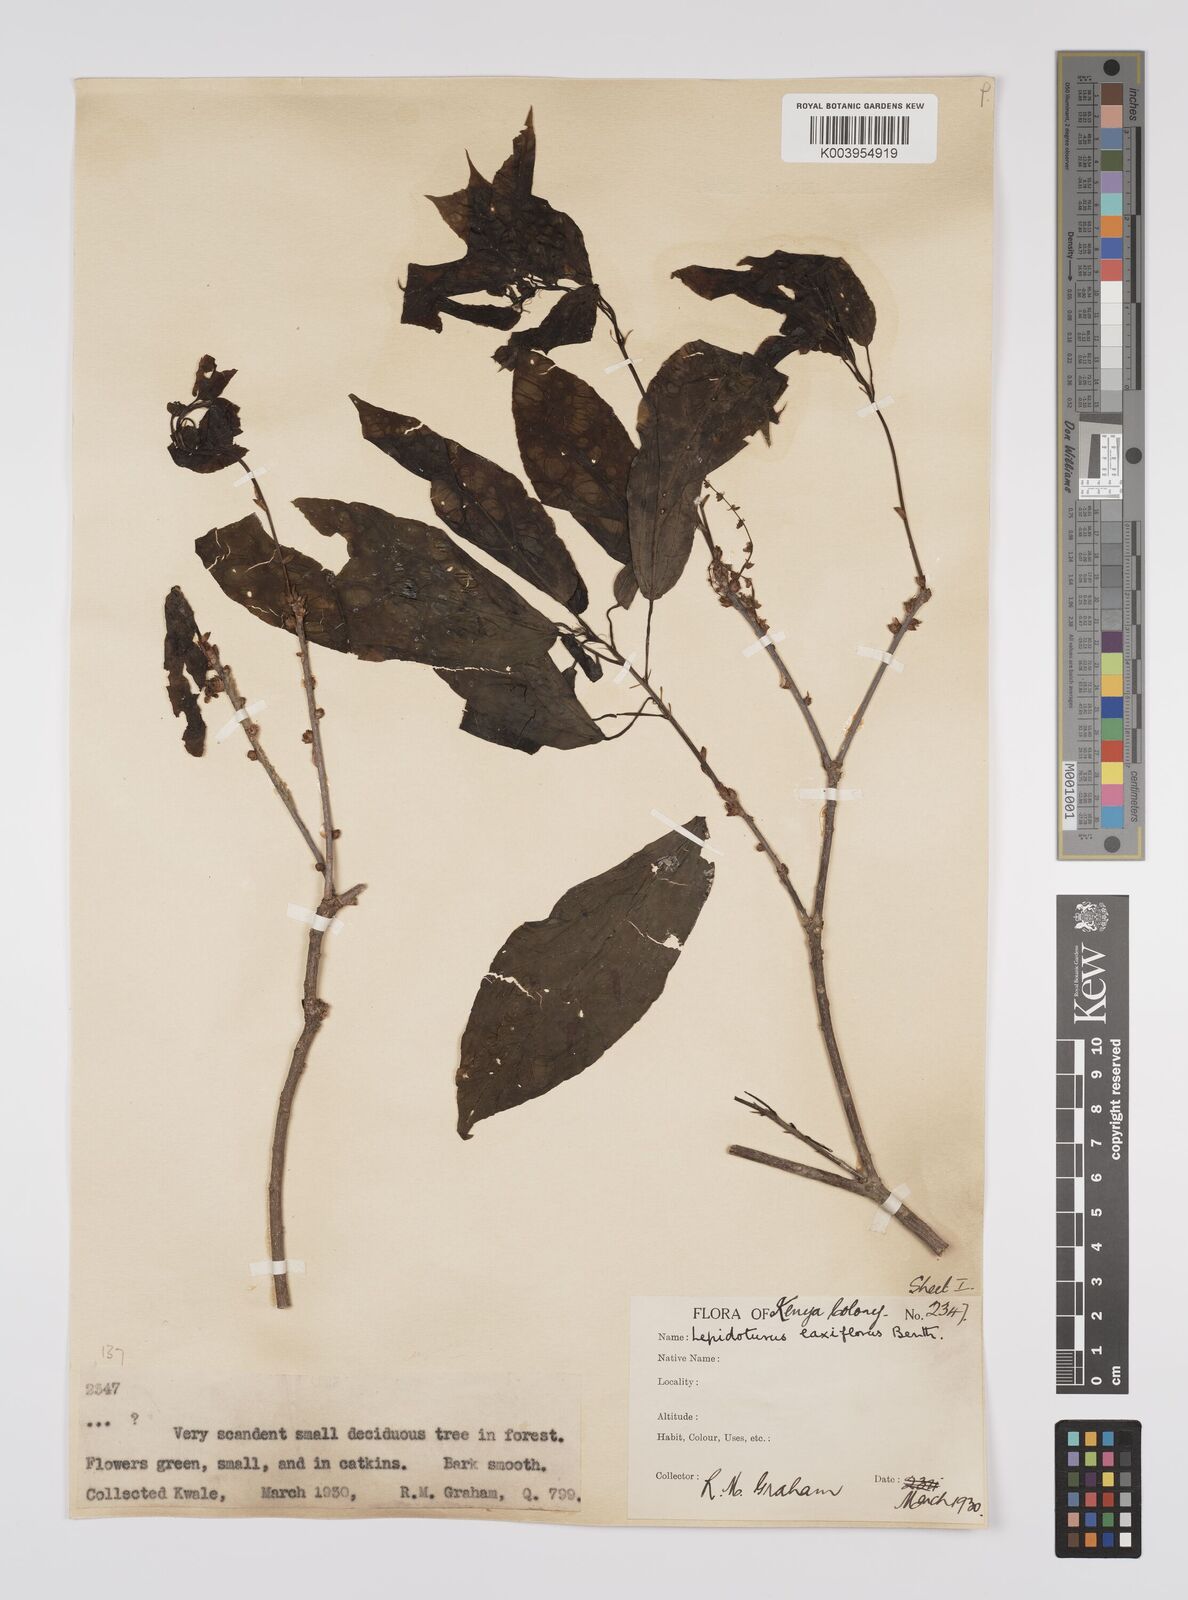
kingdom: Plantae
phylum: Tracheophyta
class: Magnoliopsida
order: Malpighiales
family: Euphorbiaceae
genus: Alchornea
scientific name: Alchornea laxiflora
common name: Lowveld bead-string
